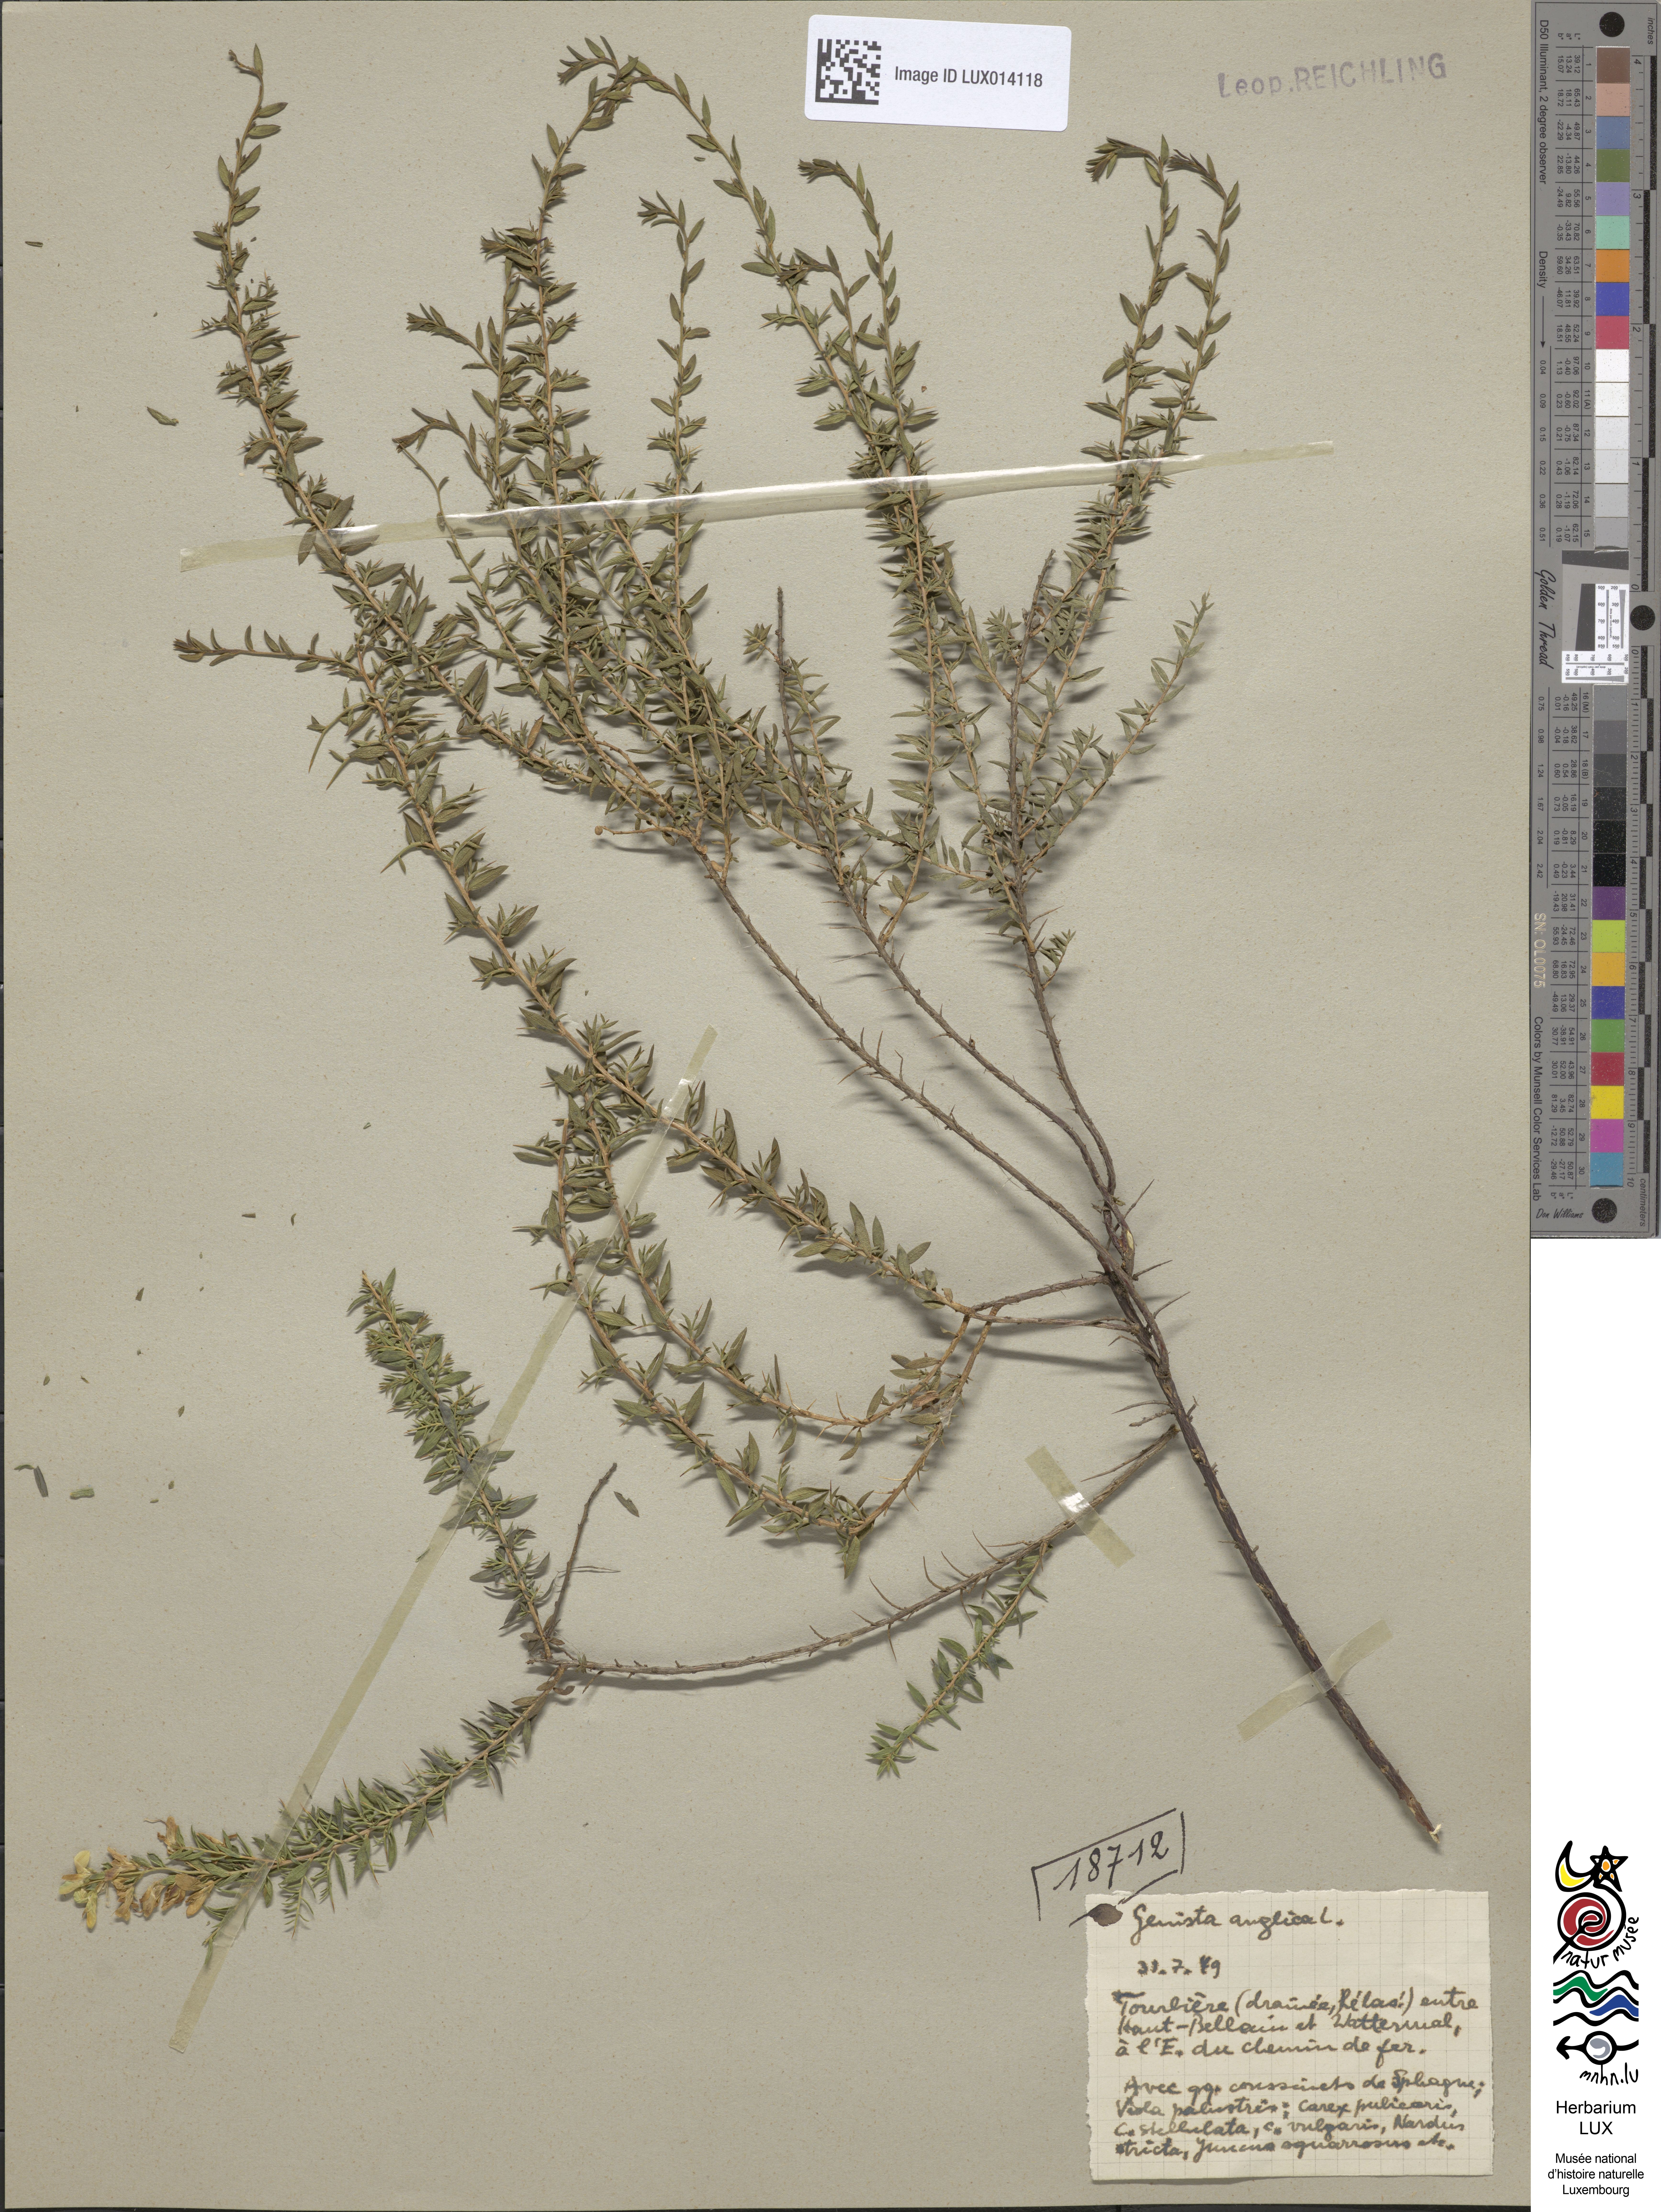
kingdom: Plantae
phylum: Tracheophyta
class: Magnoliopsida
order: Fabales
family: Fabaceae
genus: Genista
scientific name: Genista anglica
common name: Petty whin
